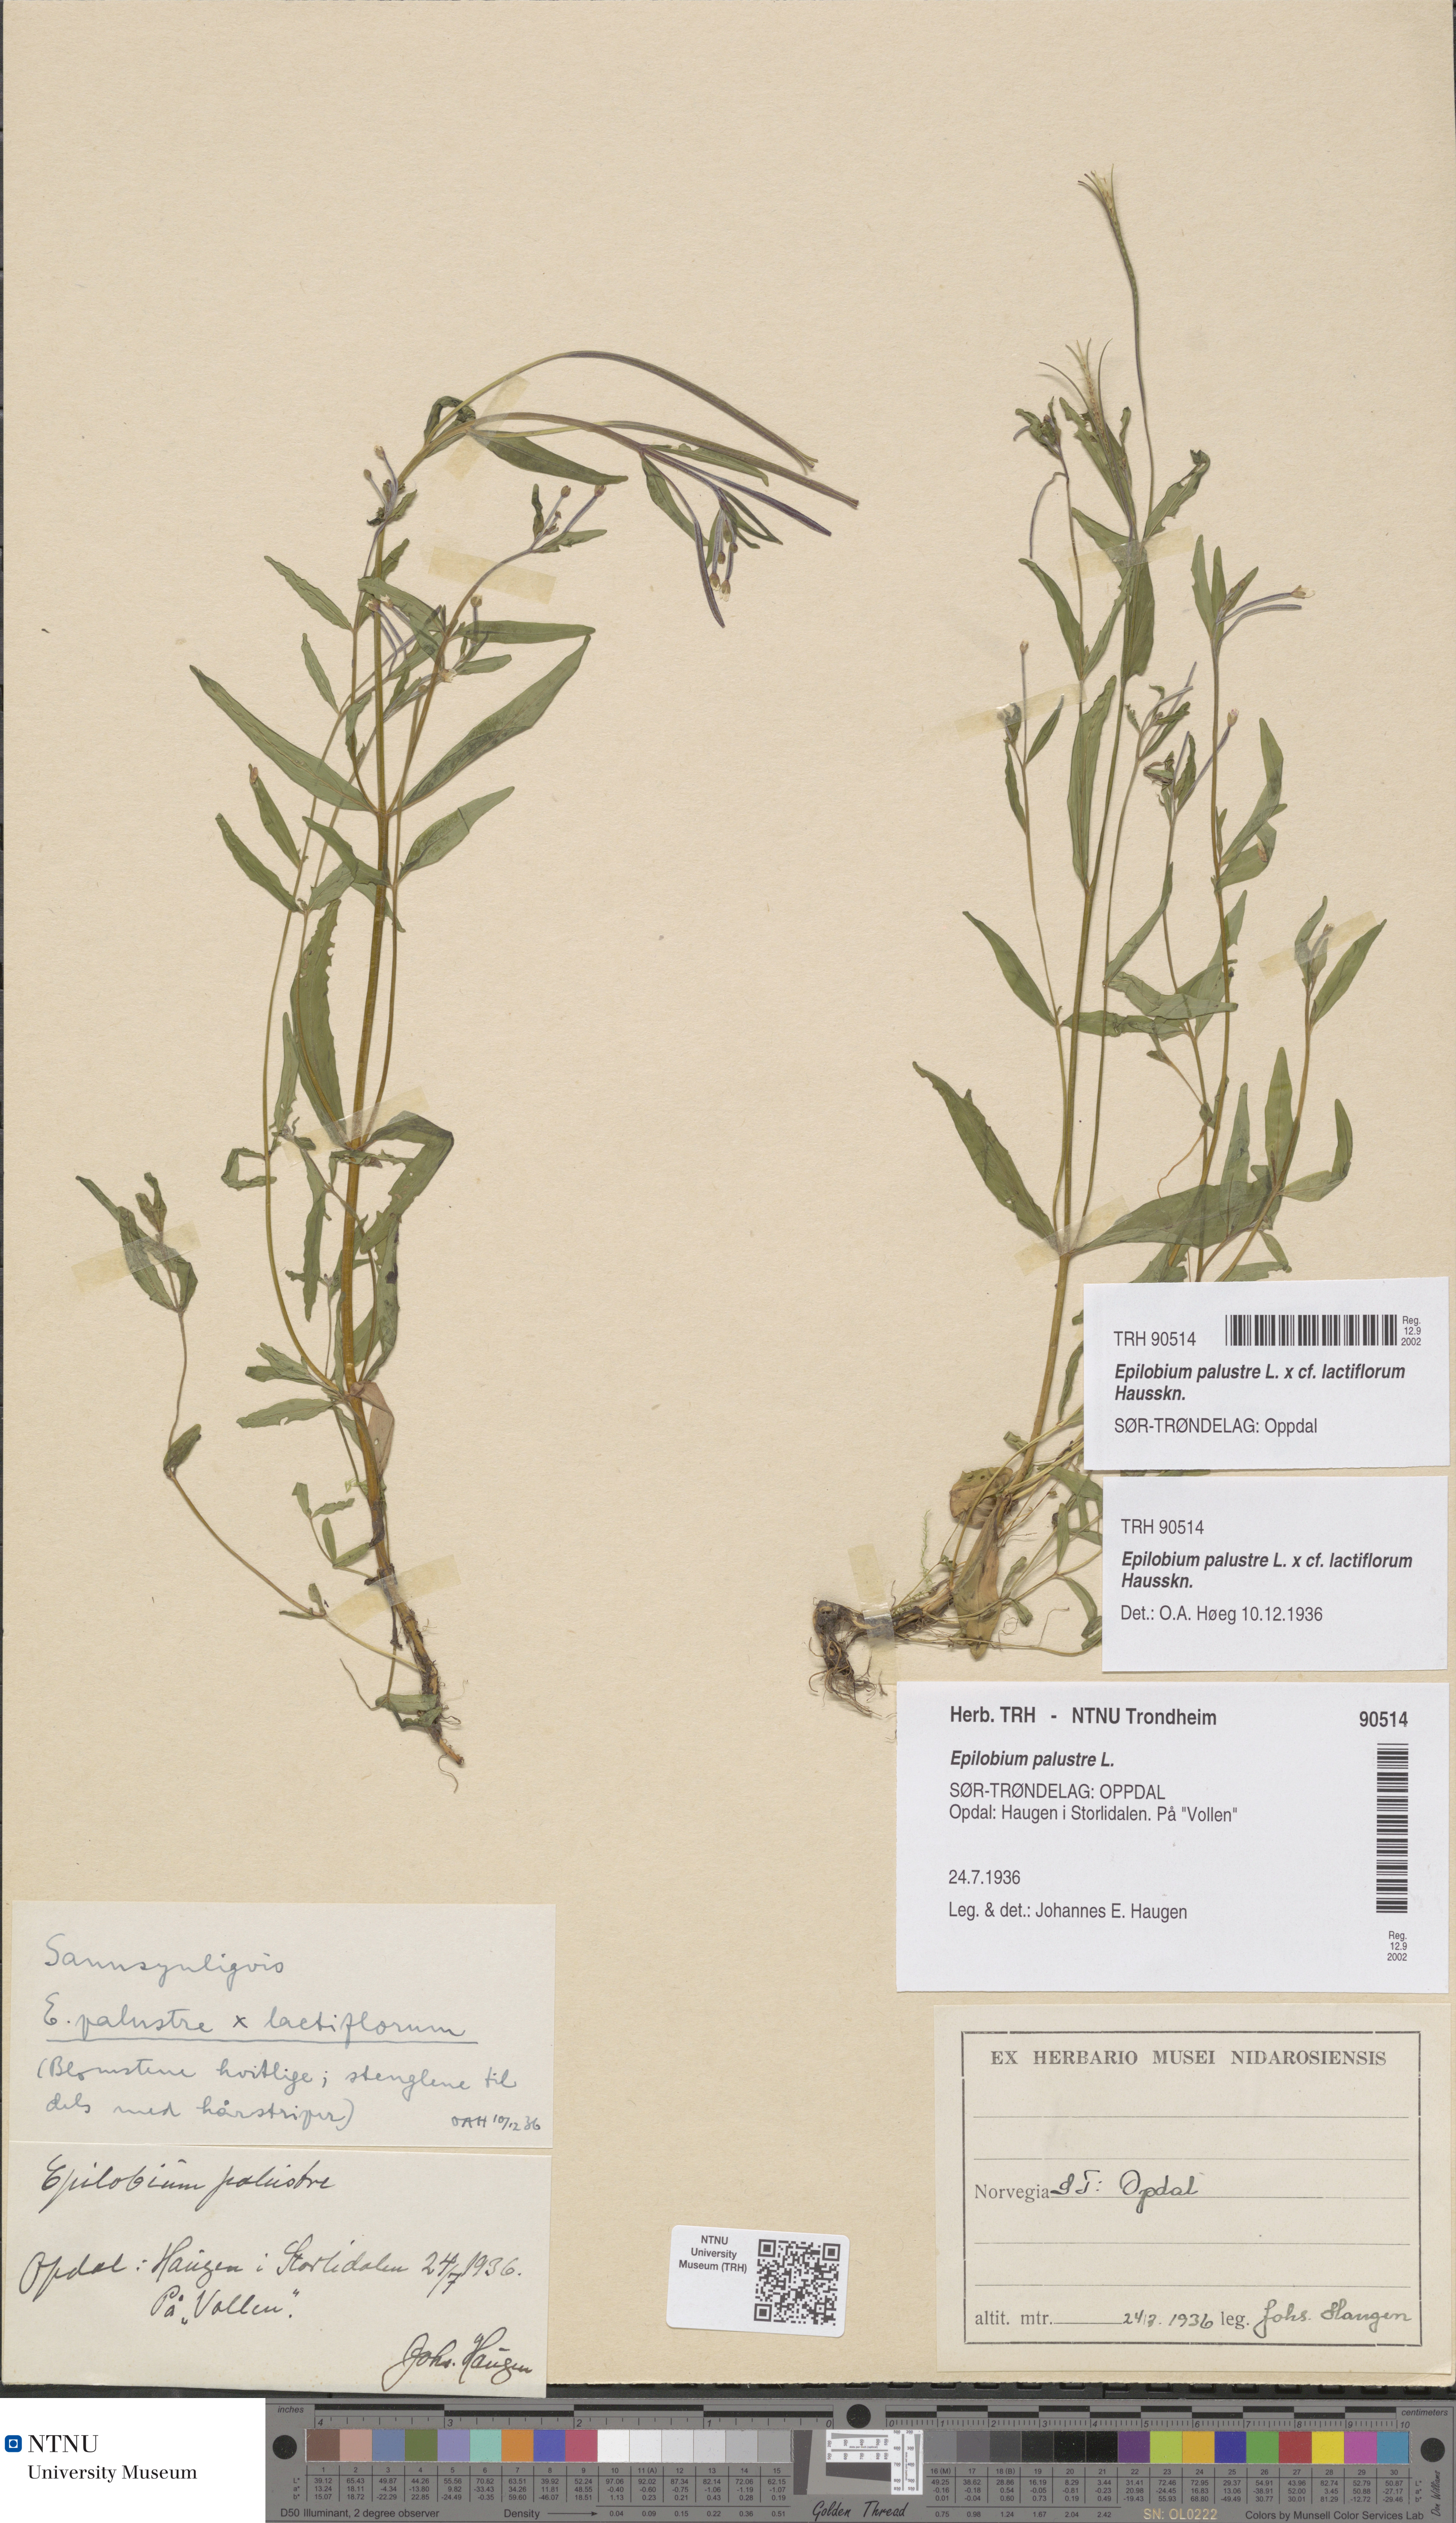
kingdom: Plantae
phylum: Tracheophyta
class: Magnoliopsida
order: Myrtales
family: Onagraceae
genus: Epilobium
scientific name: Epilobium palustre
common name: Marsh willowherb
